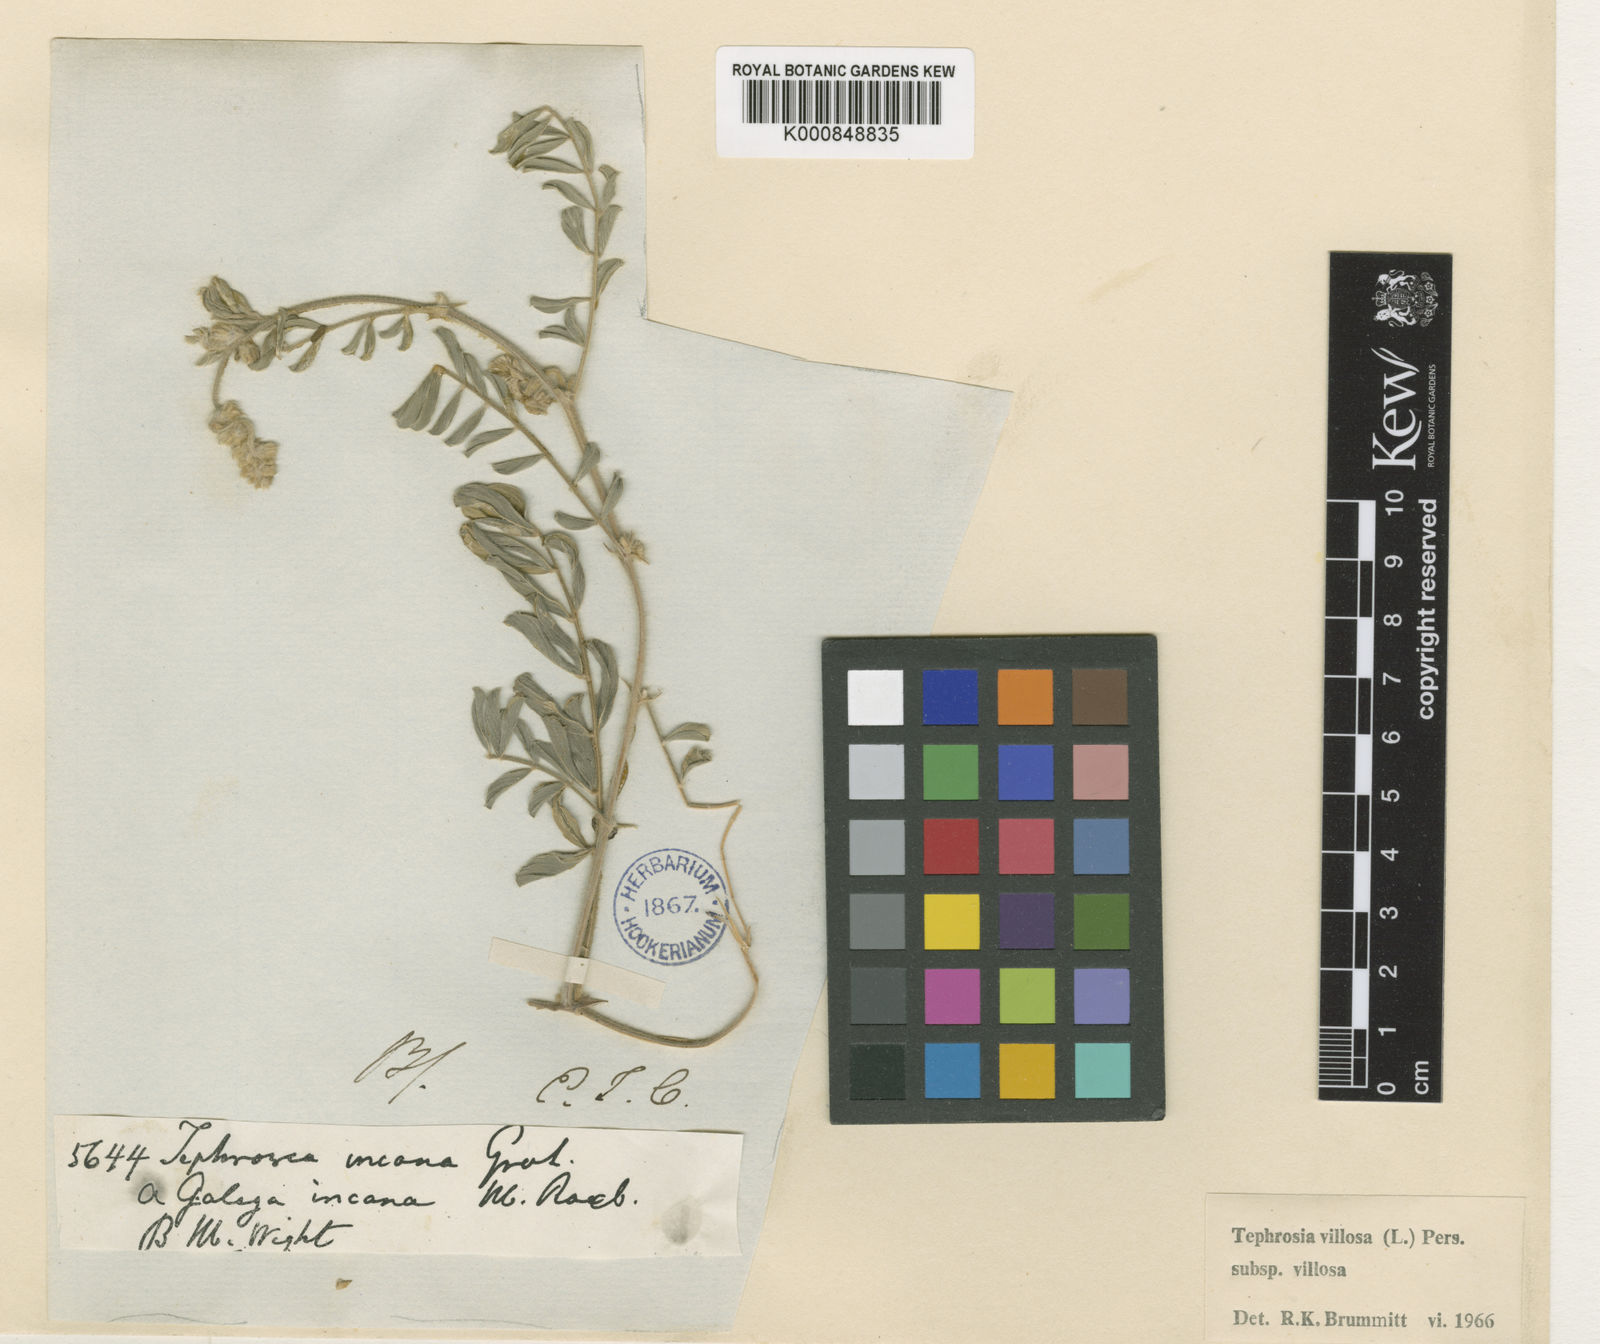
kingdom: Plantae
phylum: Tracheophyta
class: Magnoliopsida
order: Fabales
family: Fabaceae
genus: Tephrosia
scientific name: Tephrosia villosa
